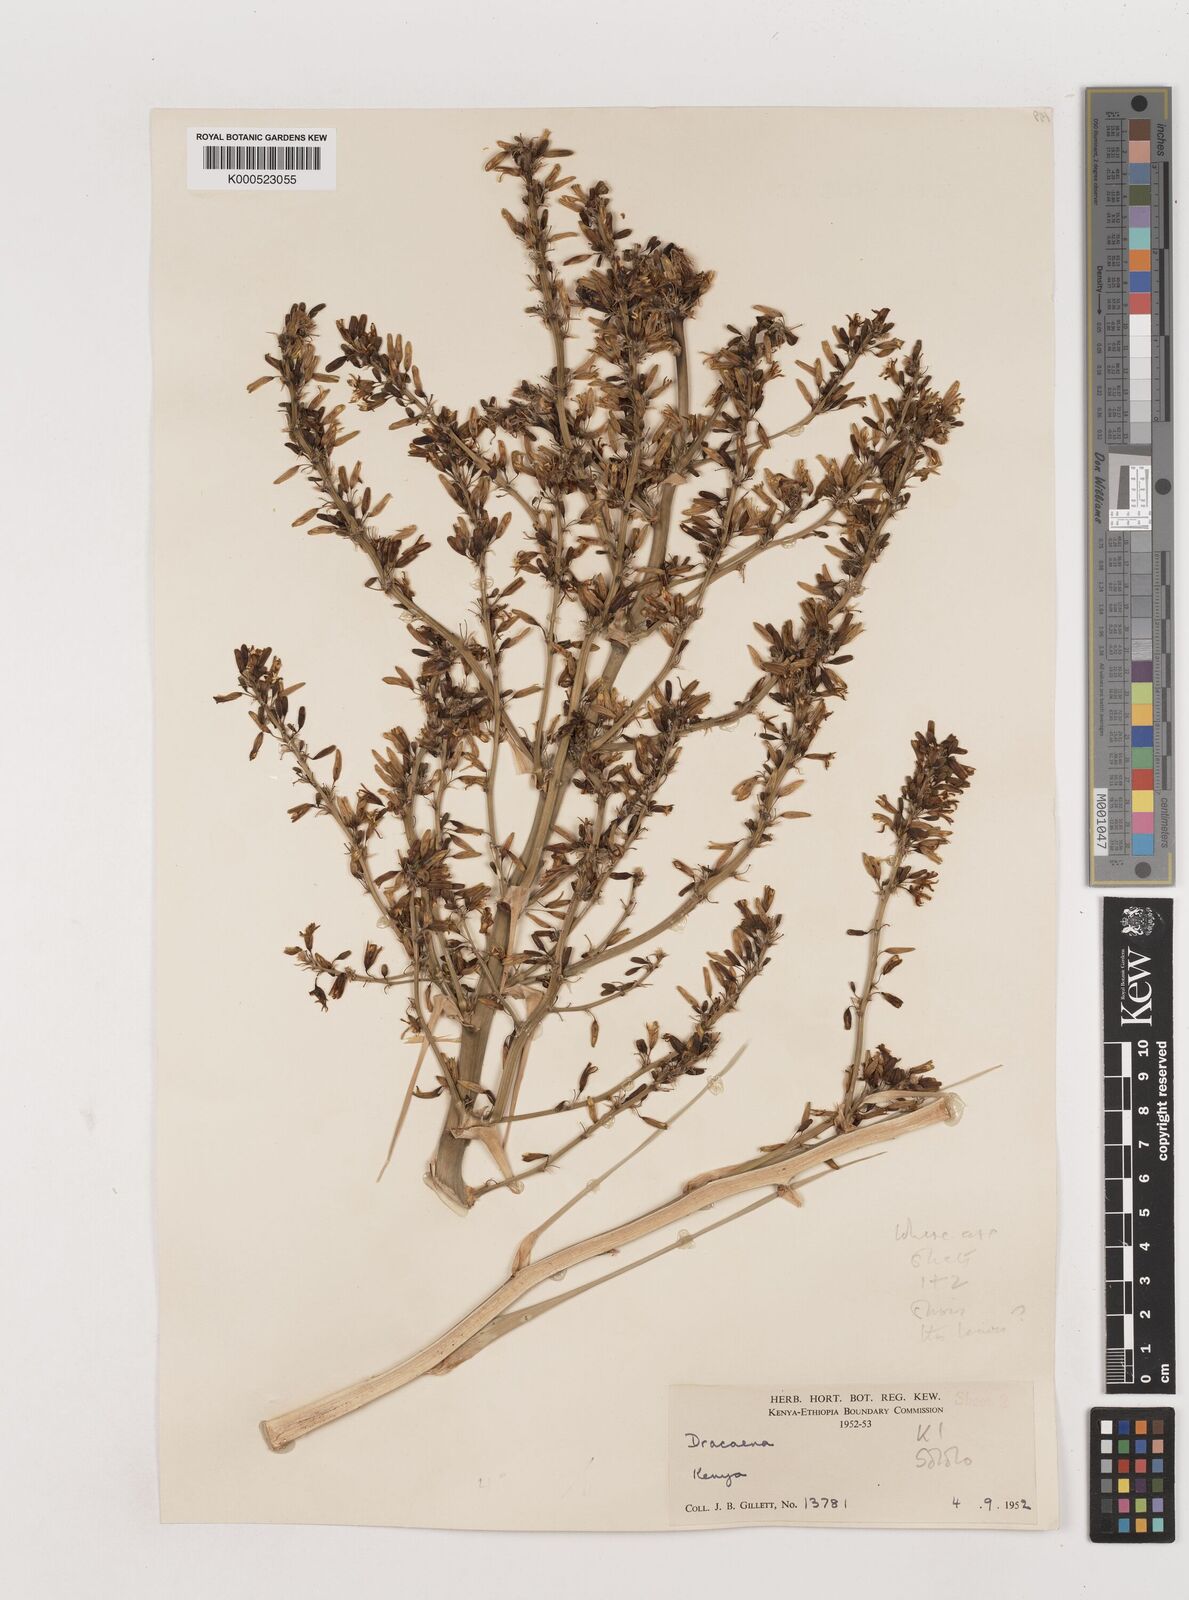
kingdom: Plantae
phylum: Tracheophyta
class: Liliopsida
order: Asparagales
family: Asparagaceae
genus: Dracaena
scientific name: Dracaena ellenbeckiana
